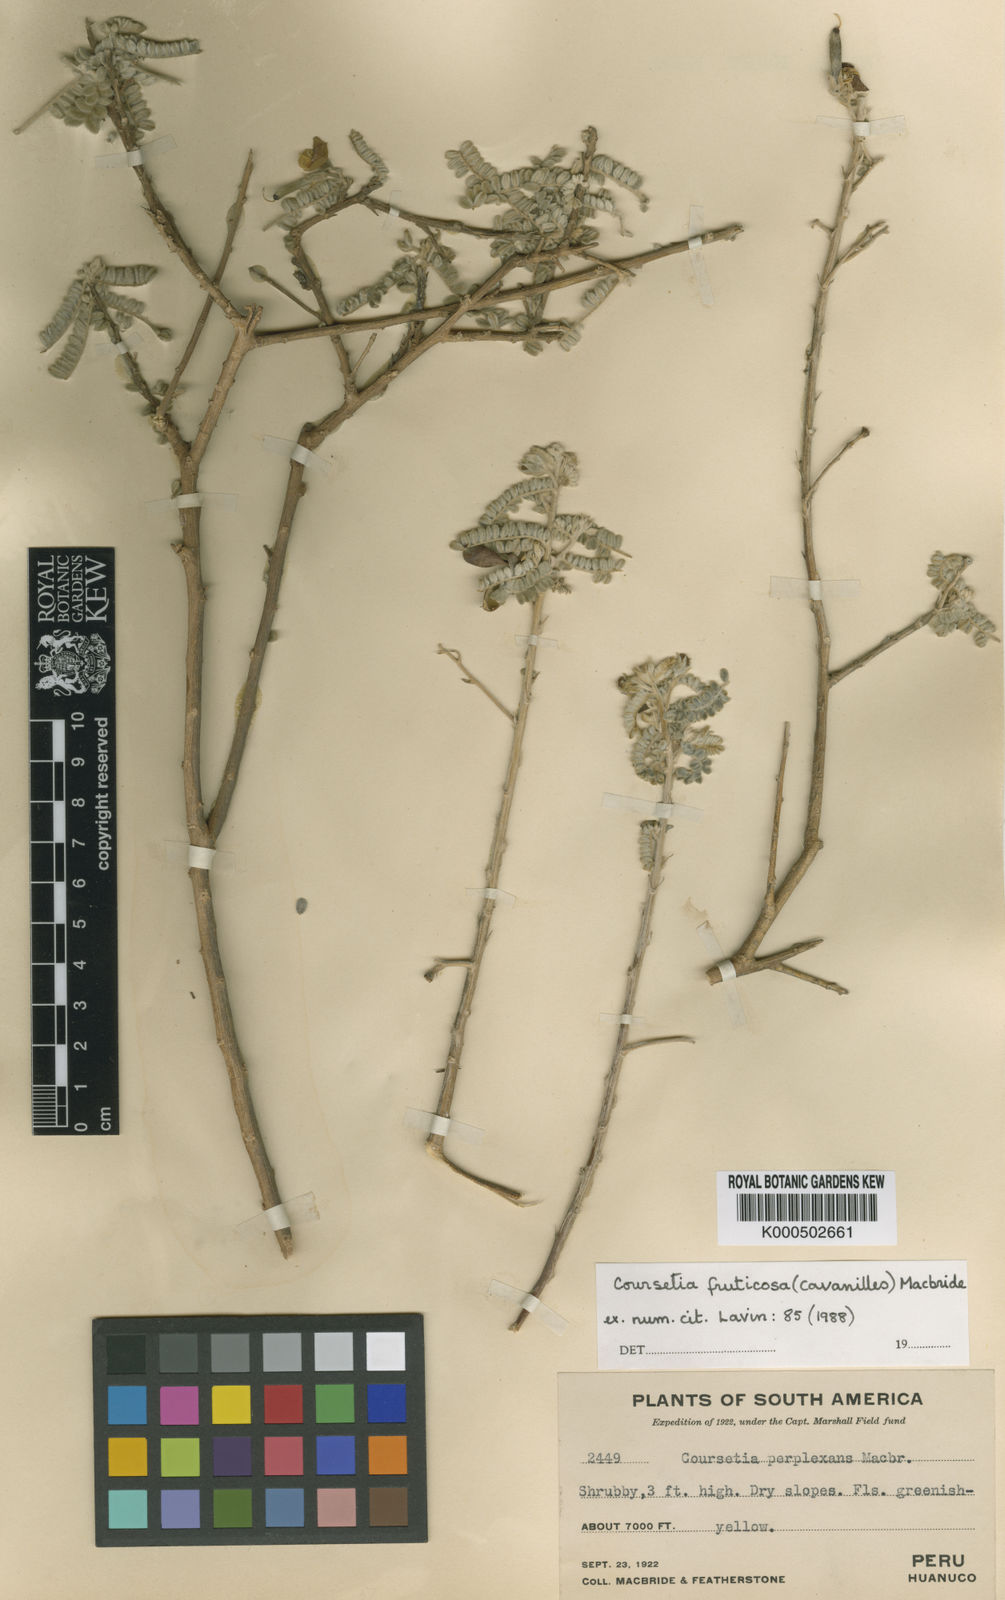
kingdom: Plantae
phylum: Tracheophyta
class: Magnoliopsida
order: Fabales
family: Fabaceae
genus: Coursetia
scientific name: Coursetia fruticosa
